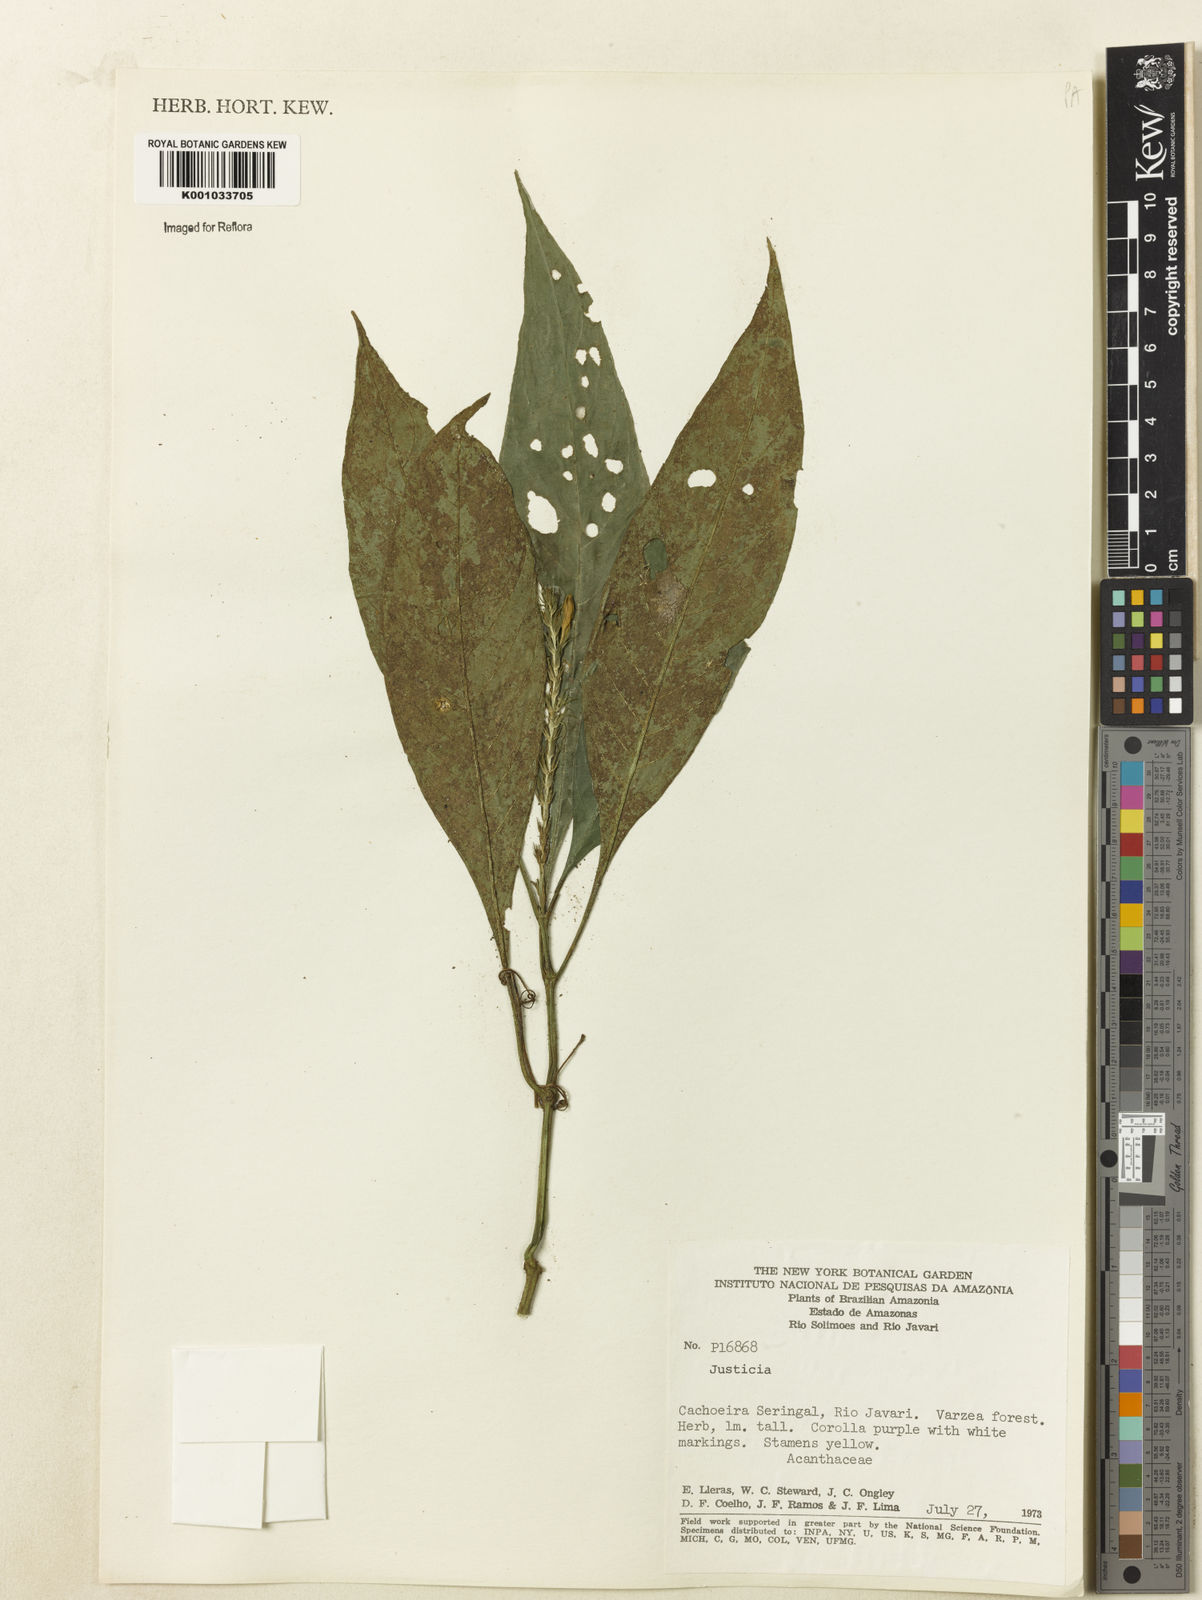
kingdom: Plantae
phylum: Tracheophyta
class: Magnoliopsida
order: Lamiales
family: Acanthaceae
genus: Justicia
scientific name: Justicia
